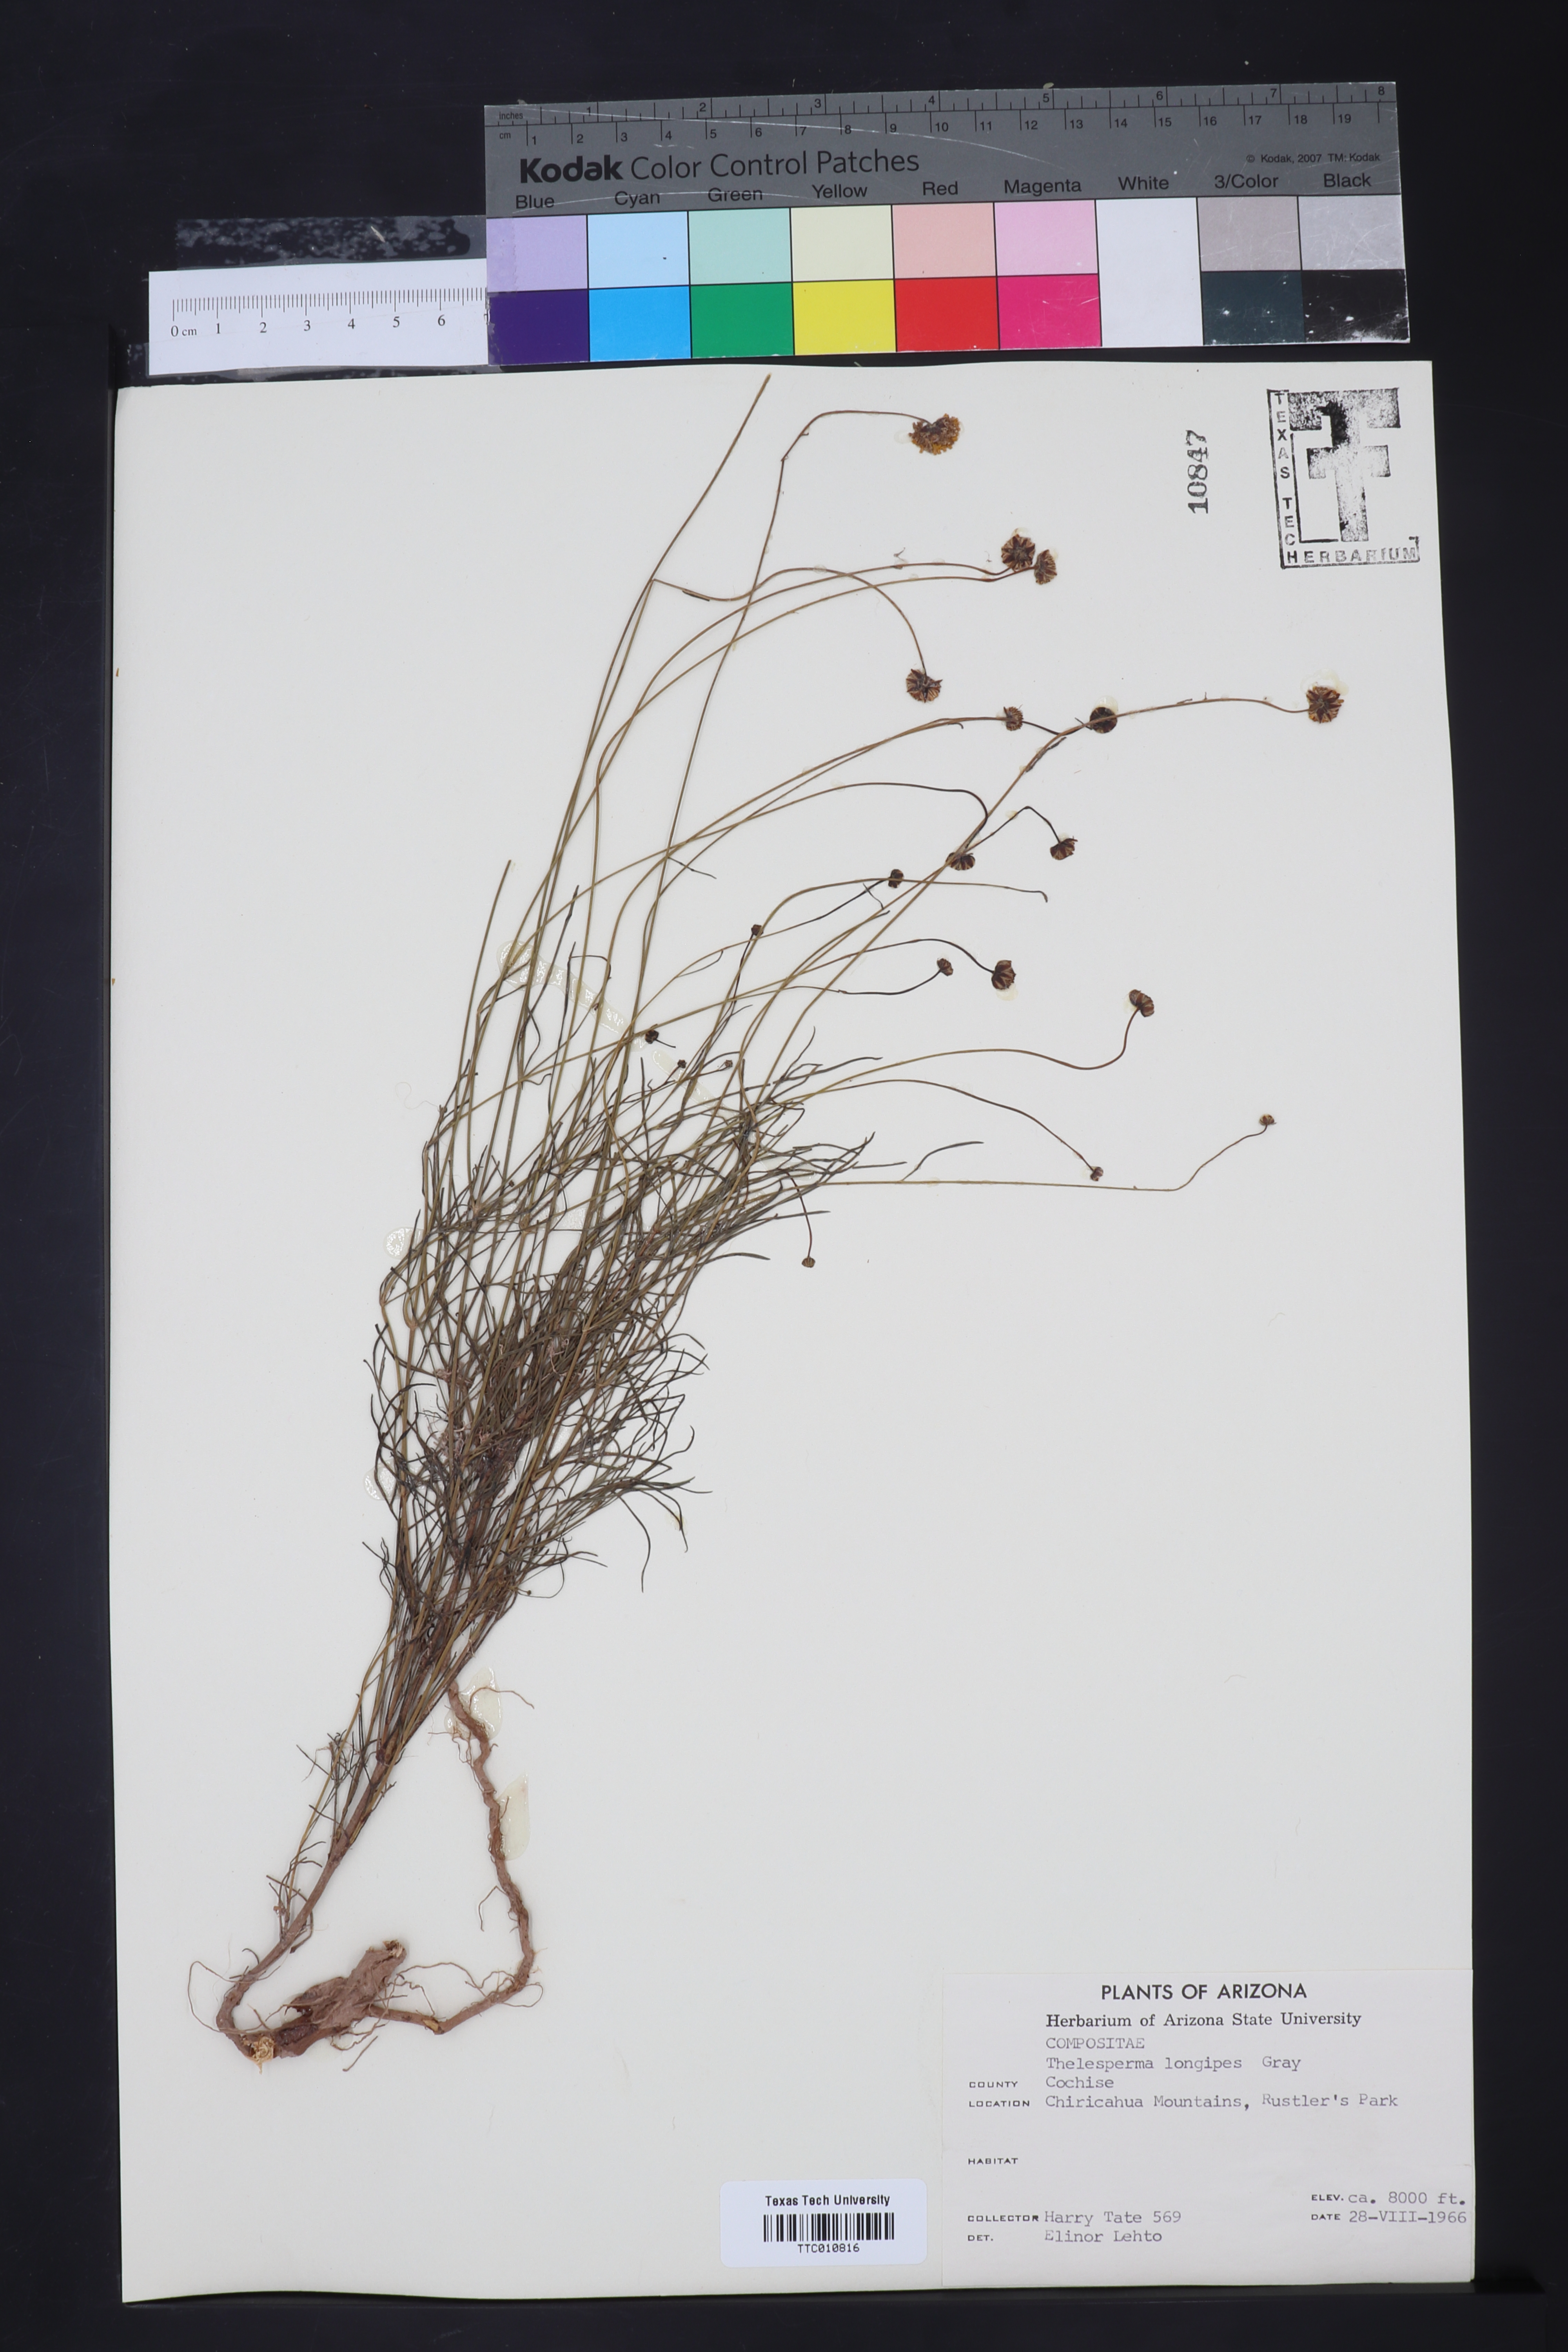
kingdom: Plantae
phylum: Tracheophyta
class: Magnoliopsida
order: Asterales
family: Asteraceae
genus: Thelesperma
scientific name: Thelesperma longipes
